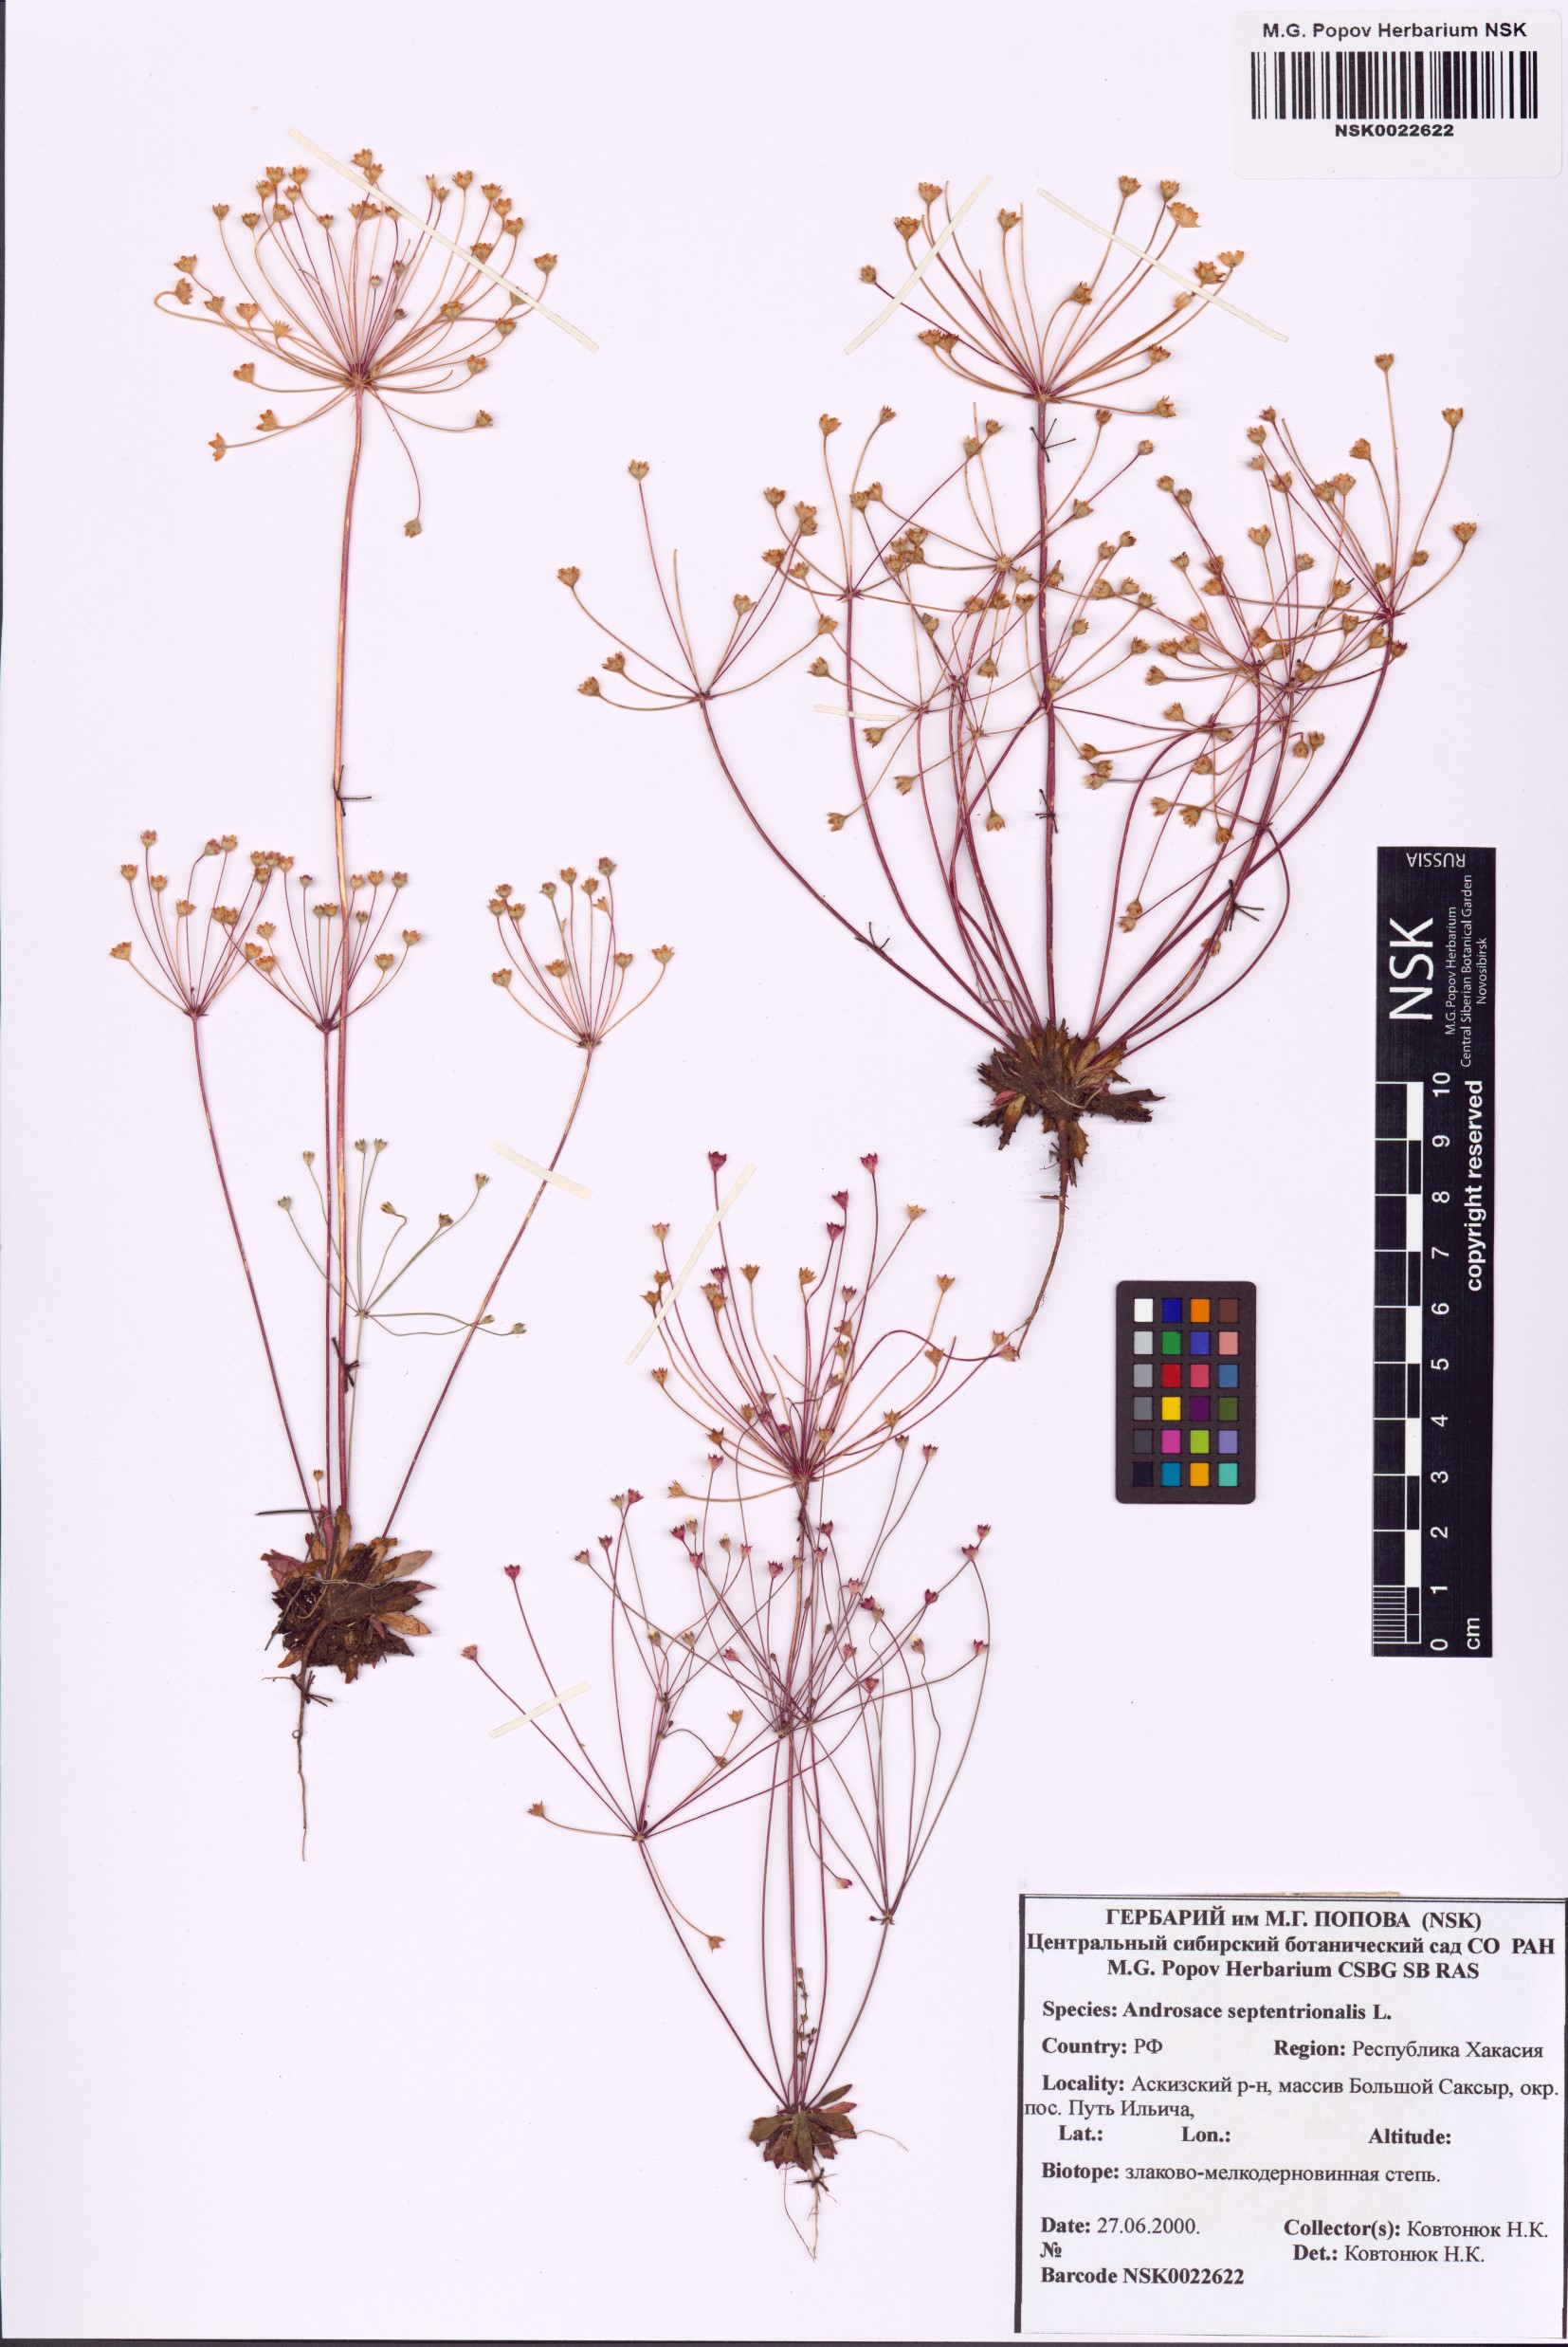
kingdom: Plantae
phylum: Tracheophyta
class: Magnoliopsida
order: Ericales
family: Primulaceae
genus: Androsace
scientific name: Androsace septentrionalis
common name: Hairy northern fairy-candelabra
